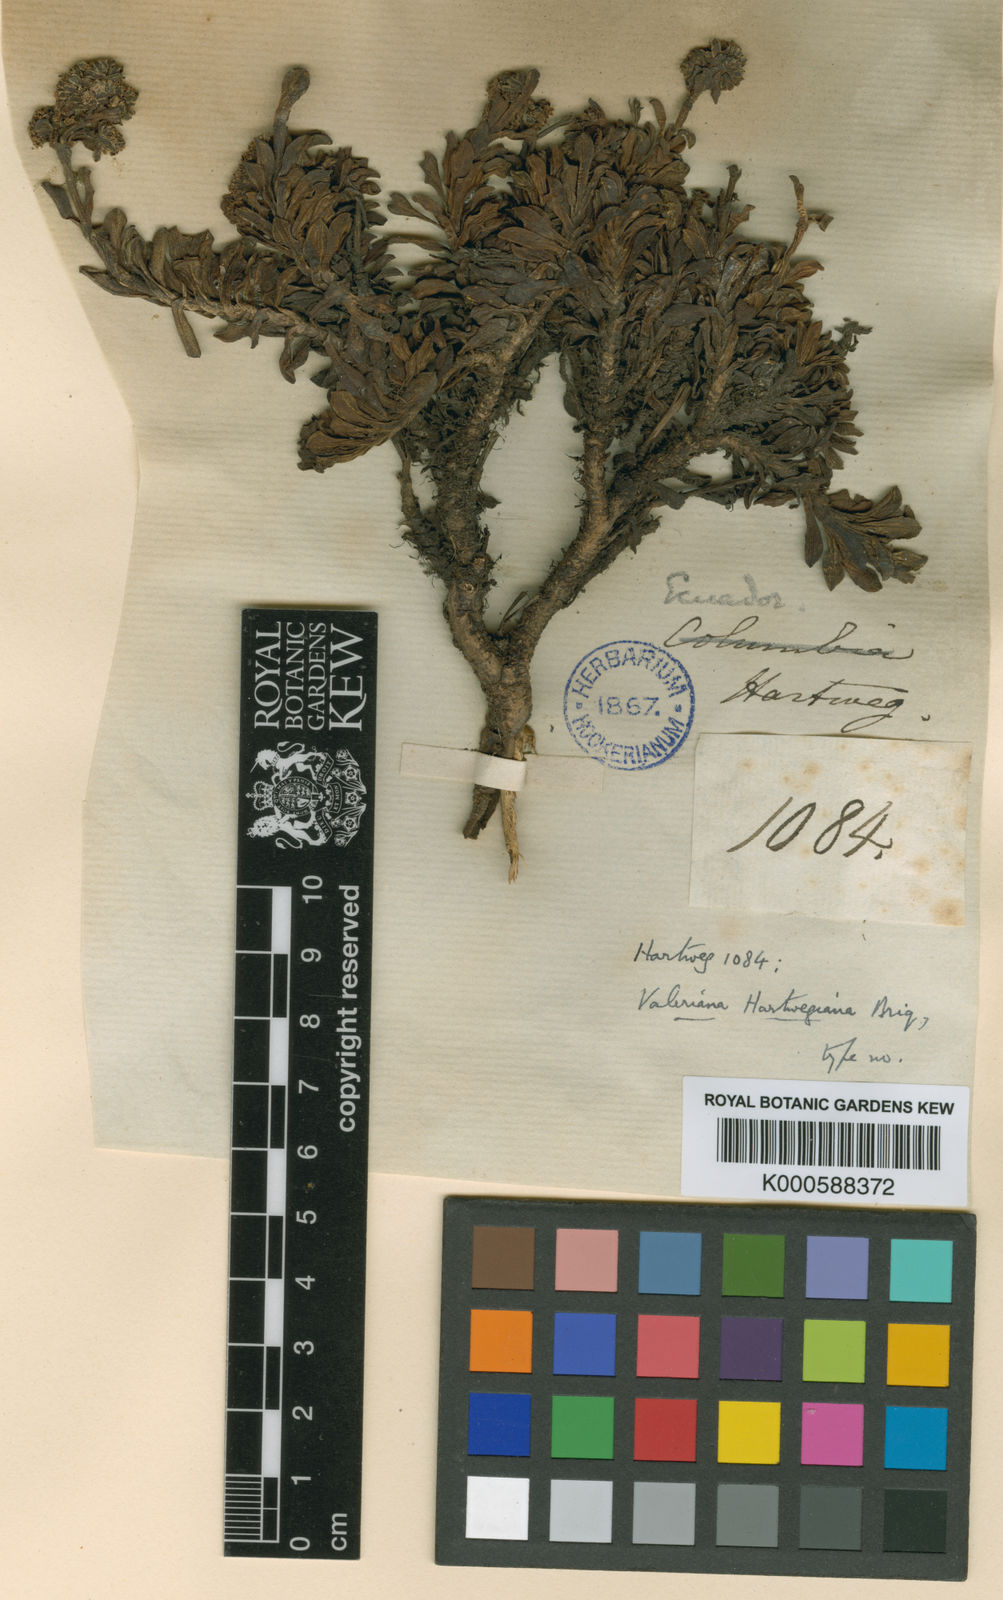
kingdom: Plantae
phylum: Tracheophyta
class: Magnoliopsida
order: Dipsacales
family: Caprifoliaceae
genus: Valeriana
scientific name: Valeriana alypifolia
